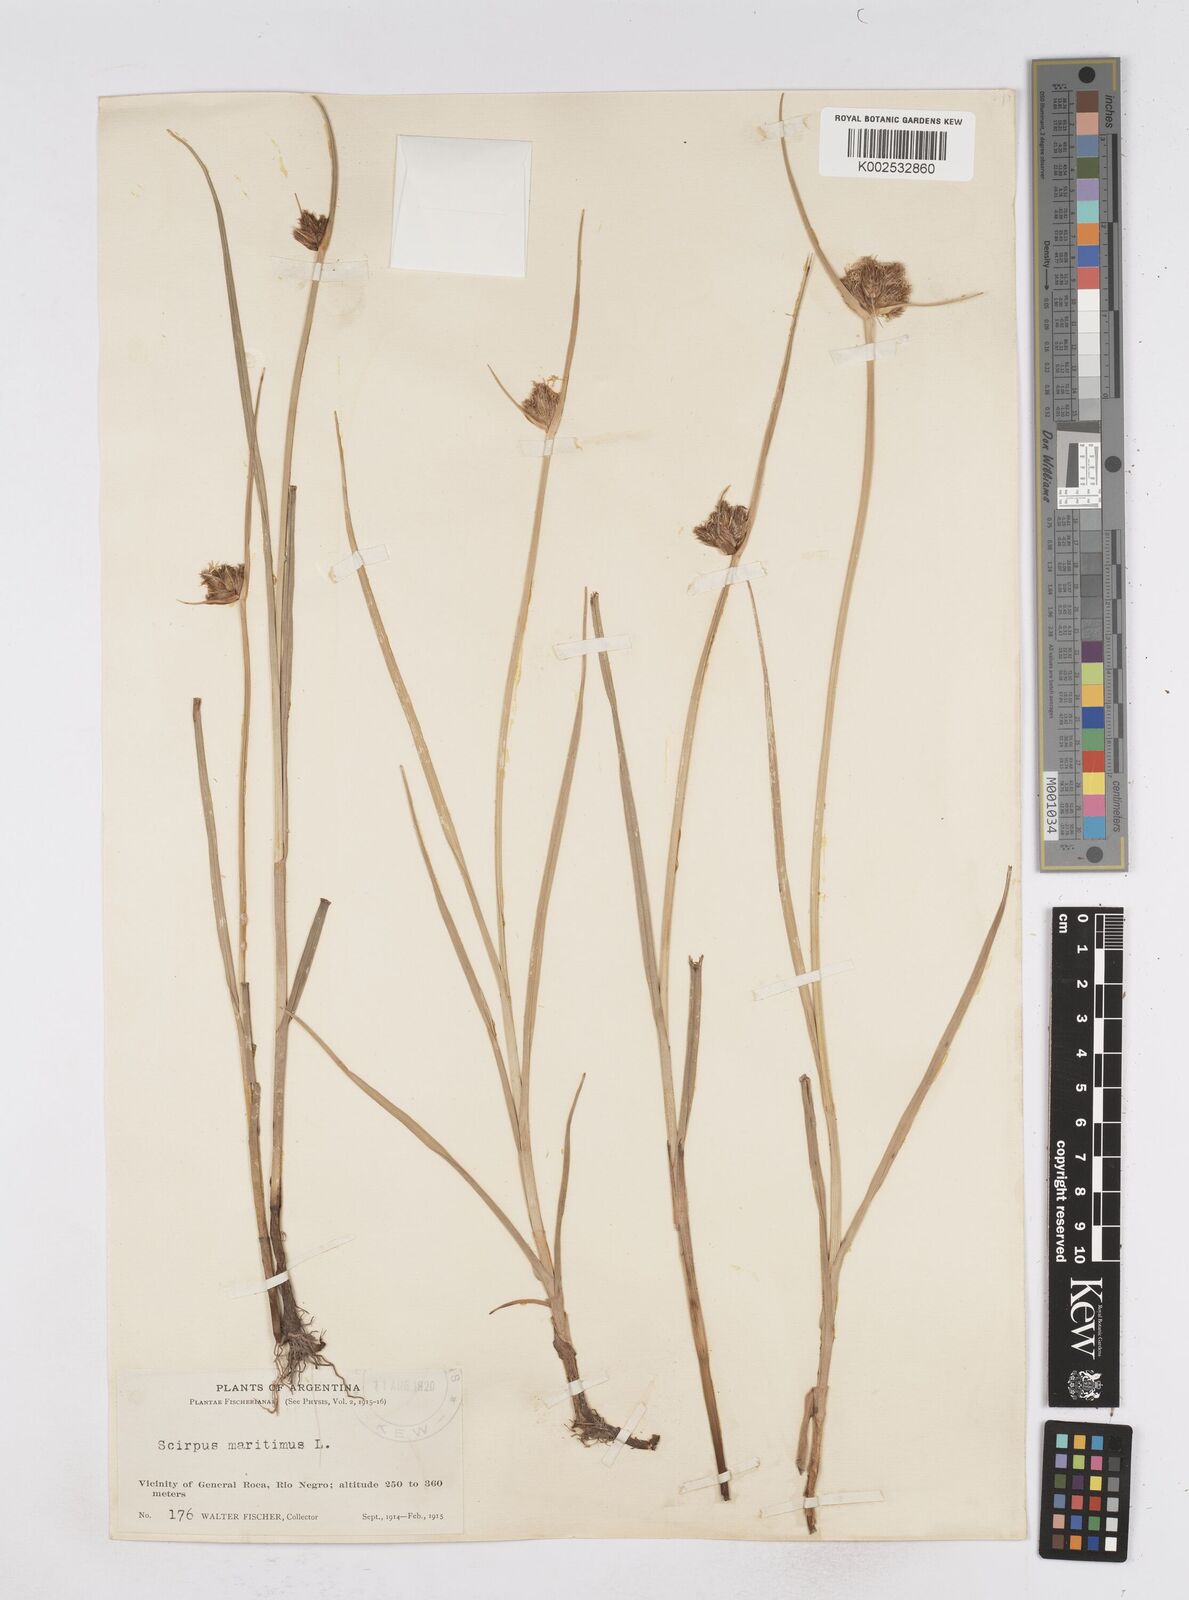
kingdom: Plantae
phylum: Tracheophyta
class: Liliopsida
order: Poales
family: Cyperaceae
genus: Bolboschoenus
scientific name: Bolboschoenus maritimus
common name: Sea club-rush
